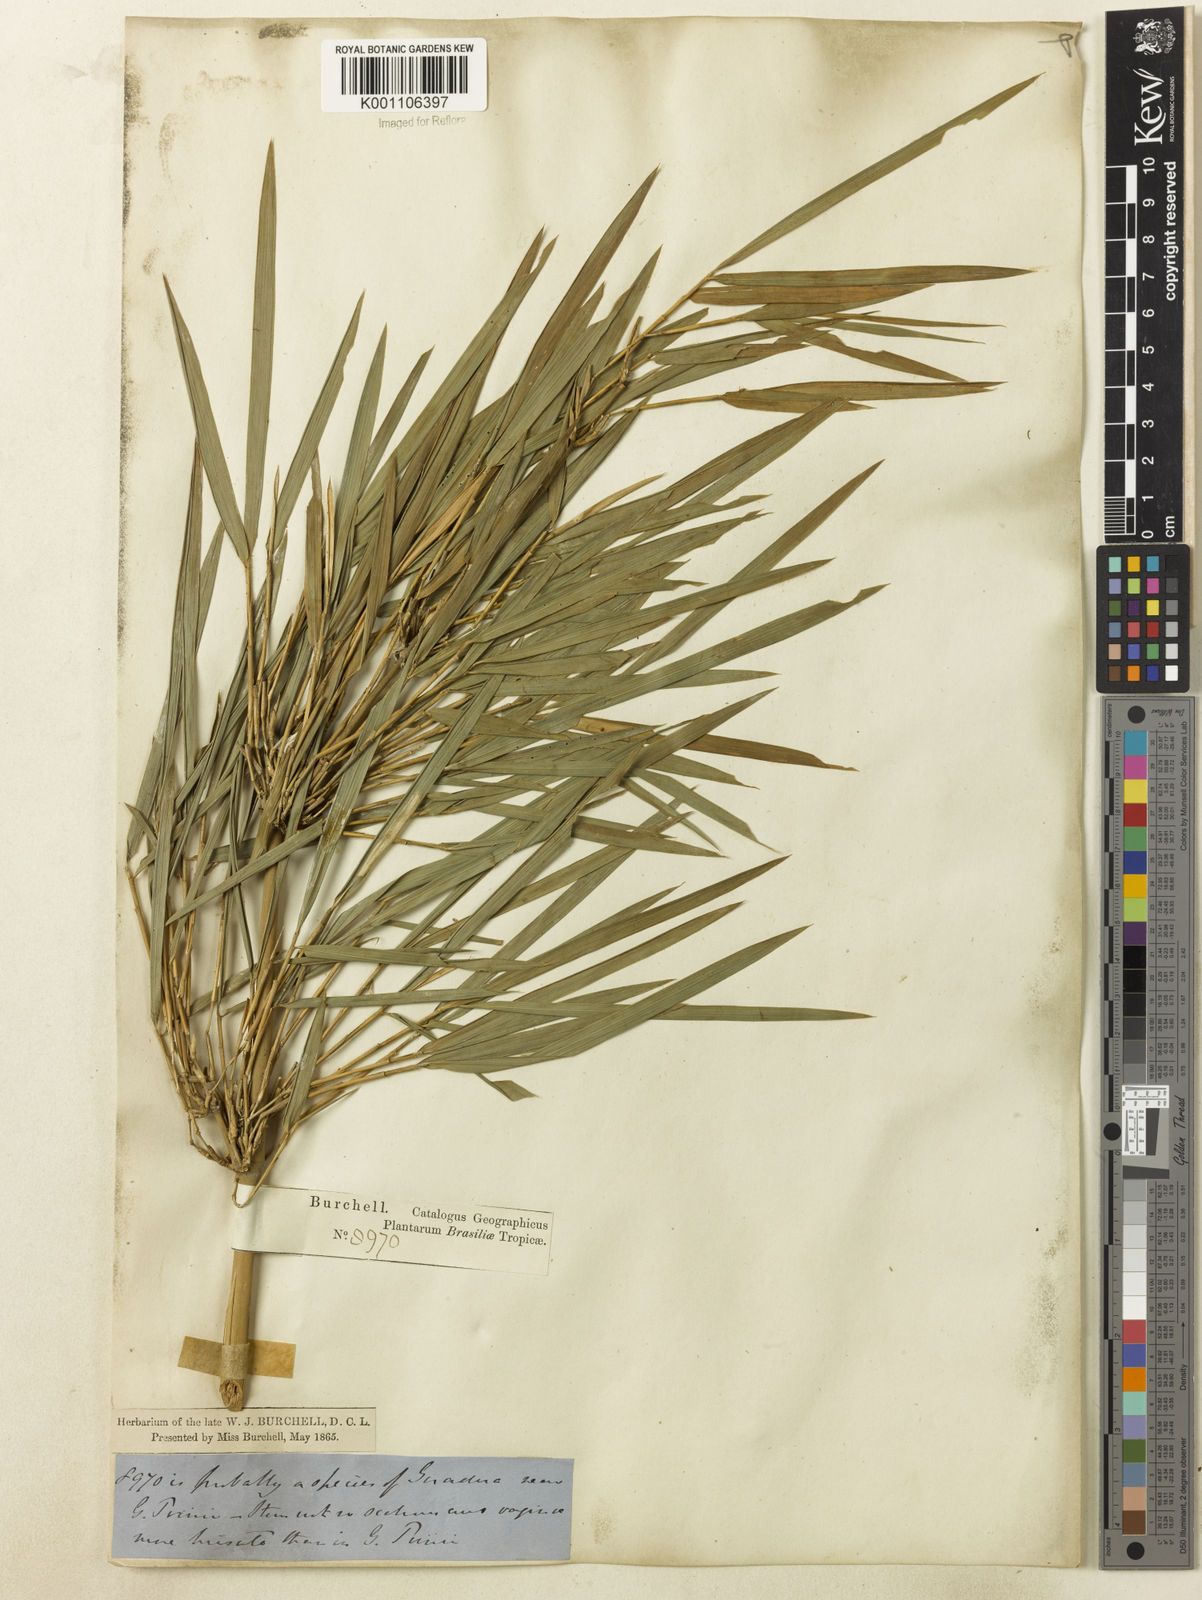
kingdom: Plantae
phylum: Tracheophyta
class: Liliopsida
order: Poales
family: Poaceae
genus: Guadua
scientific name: Guadua
